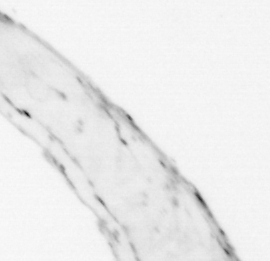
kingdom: Animalia
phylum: Chaetognatha
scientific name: Chaetognatha
